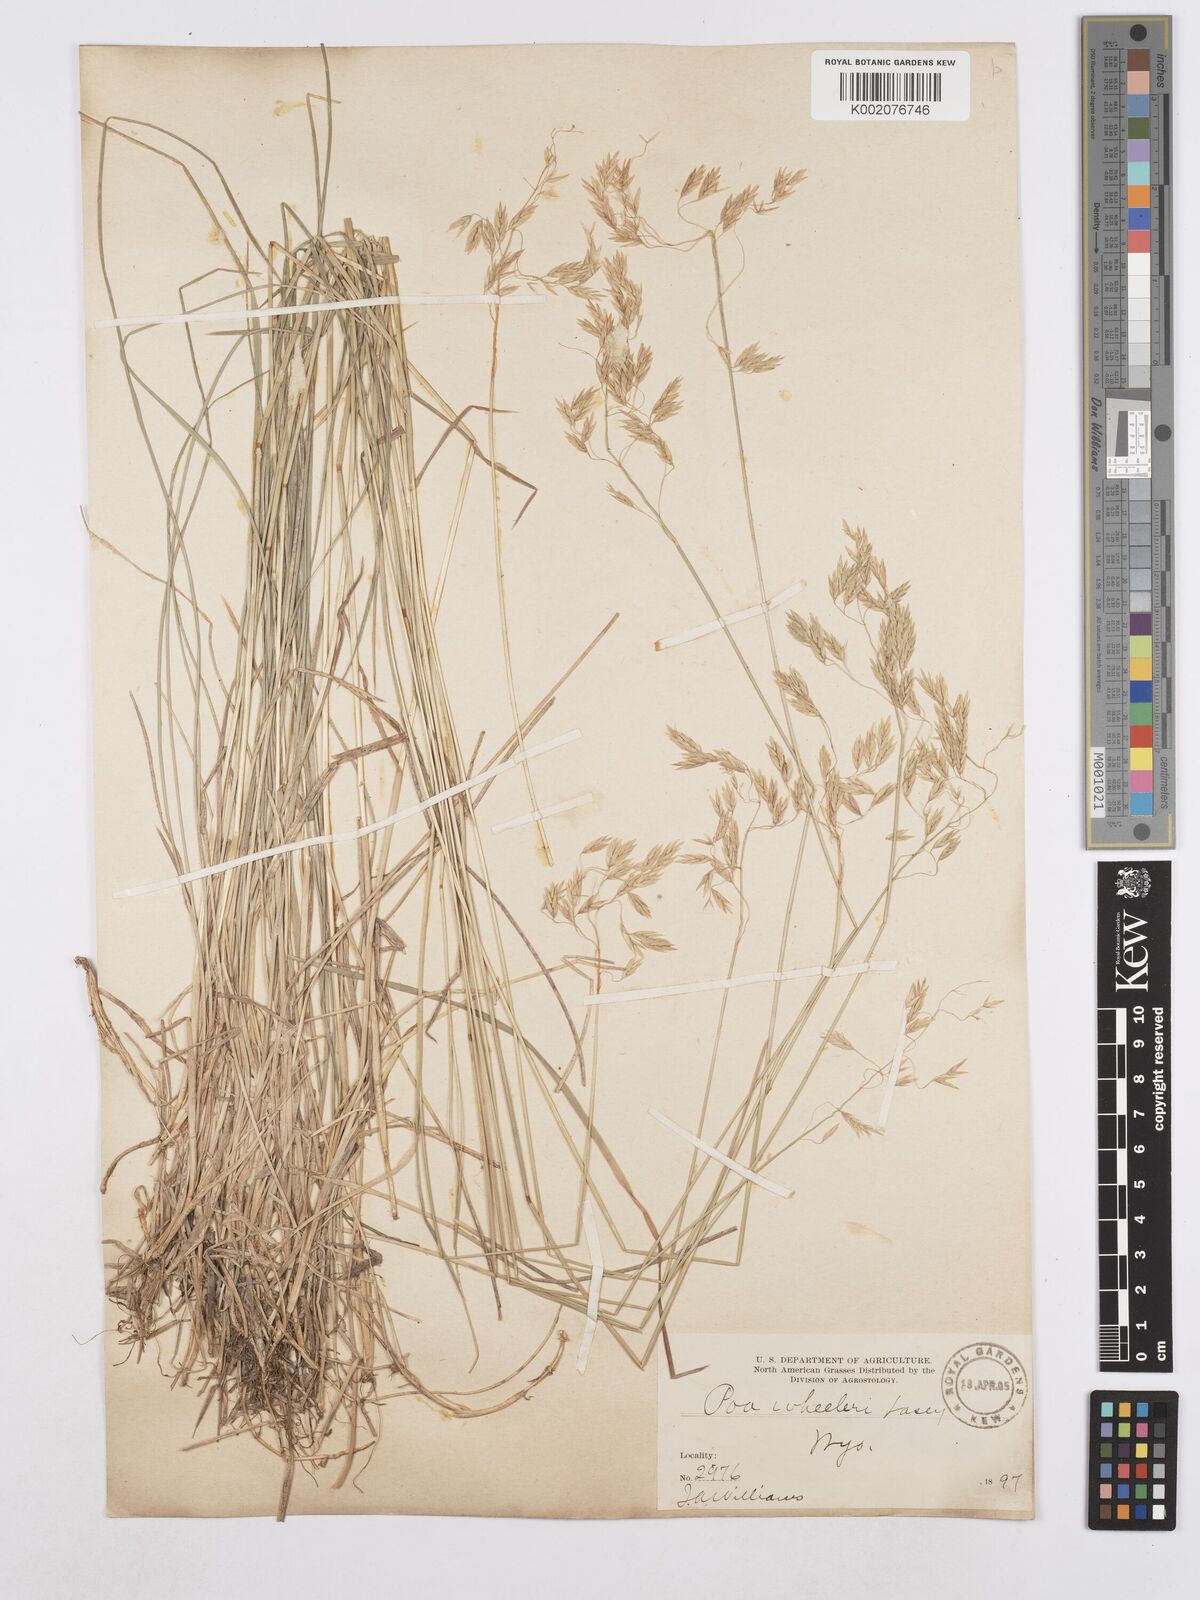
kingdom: Plantae
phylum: Tracheophyta
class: Liliopsida
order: Poales
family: Poaceae
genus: Poa
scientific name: Poa wheeleri
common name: Wheeler's bluegrass
